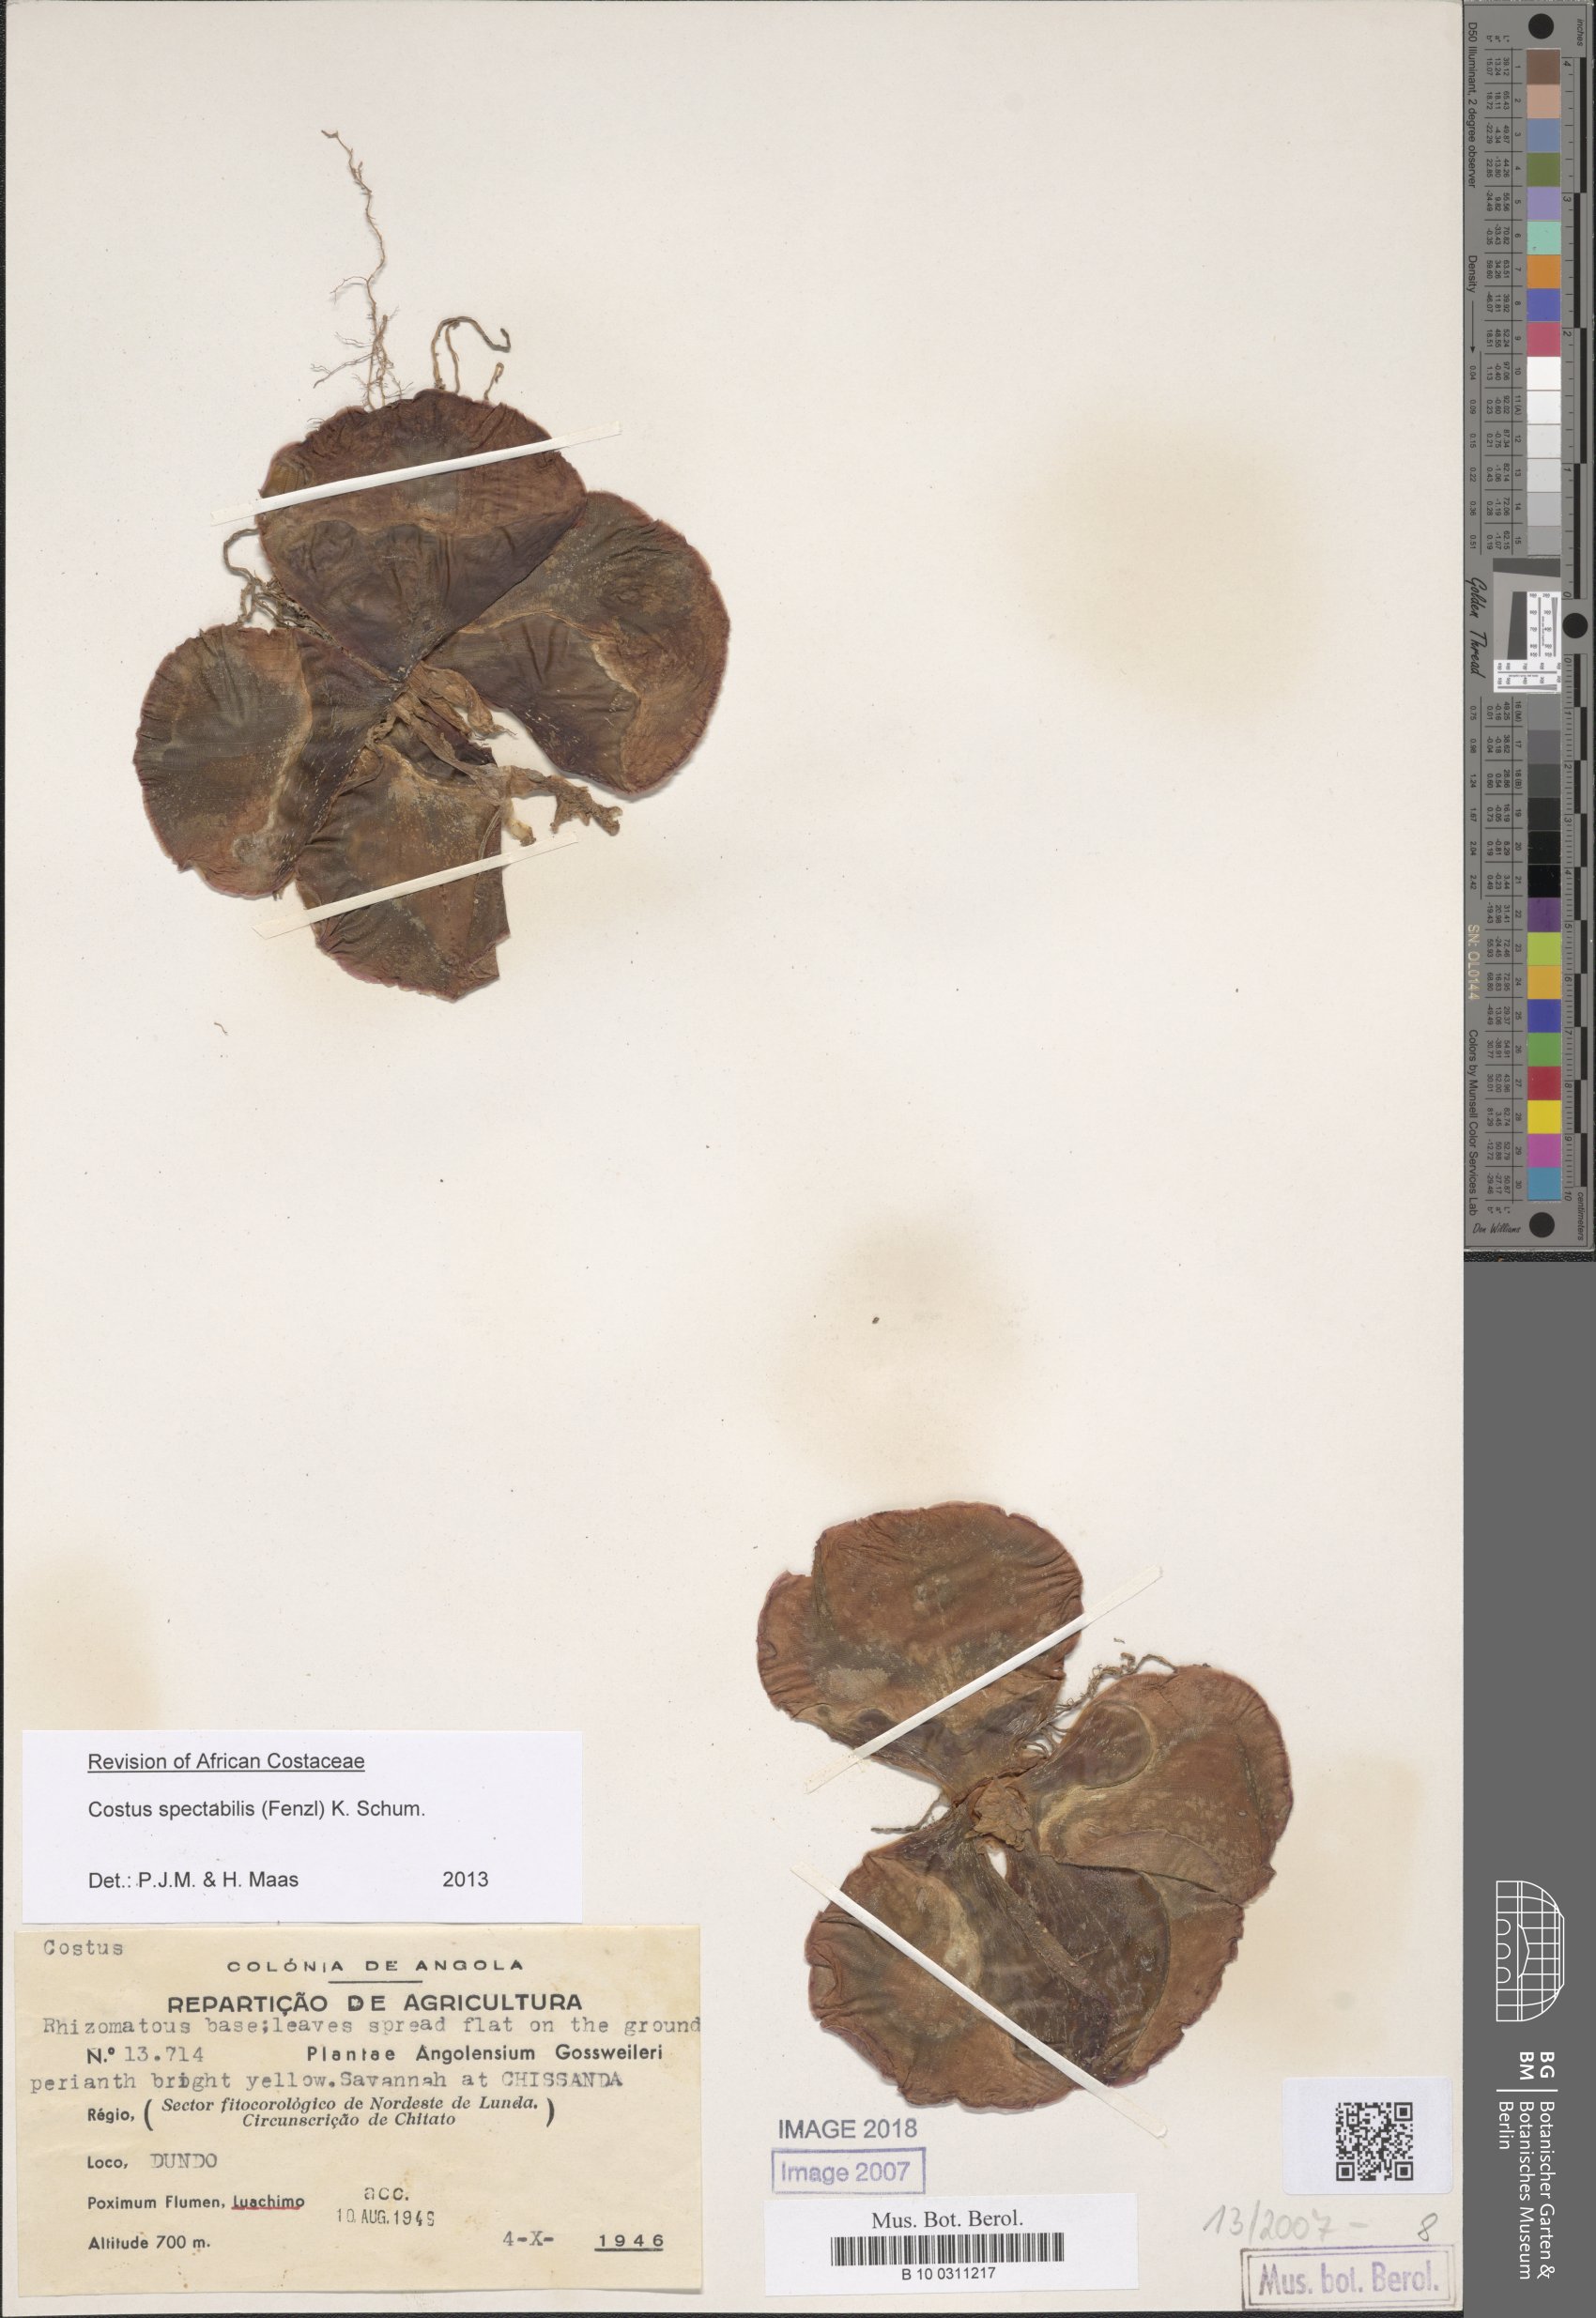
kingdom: Plantae
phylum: Tracheophyta
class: Liliopsida
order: Zingiberales
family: Costaceae
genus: Costus
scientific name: Costus spectabilis
